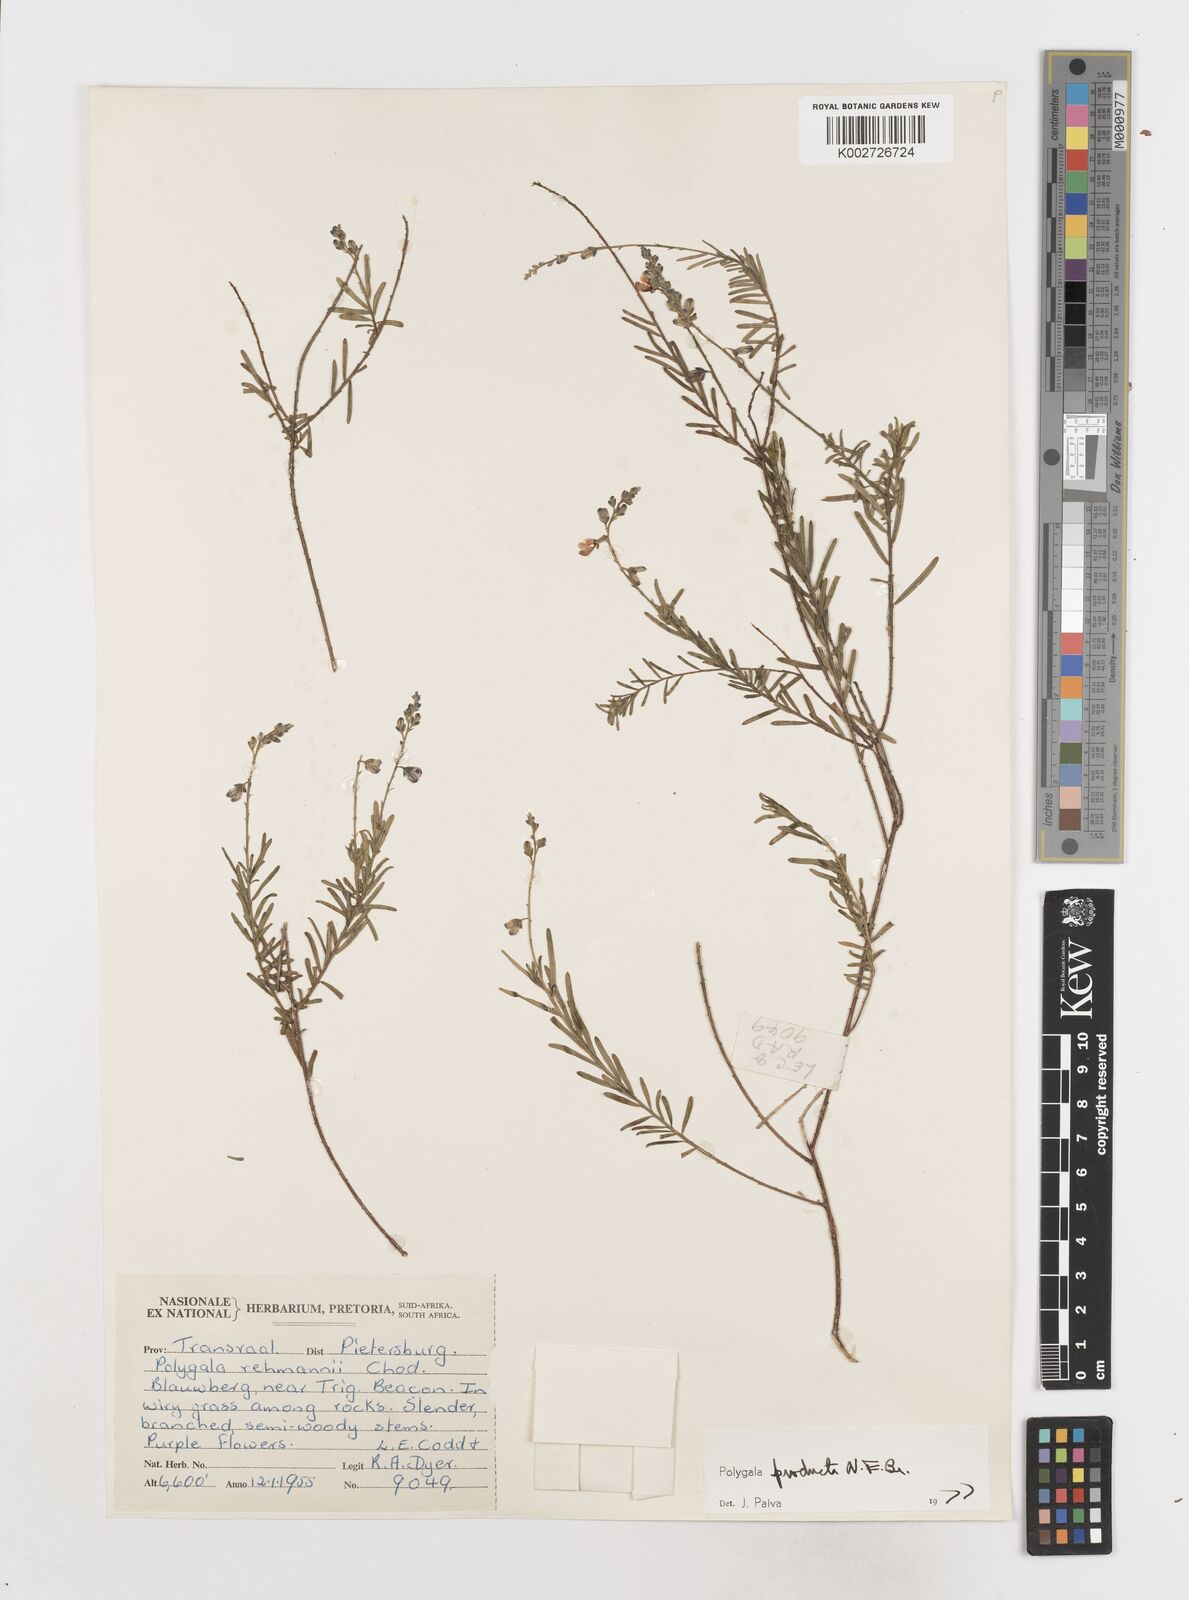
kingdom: Plantae
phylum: Tracheophyta
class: Magnoliopsida
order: Fabales
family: Polygalaceae
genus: Polygala
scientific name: Polygala producta
